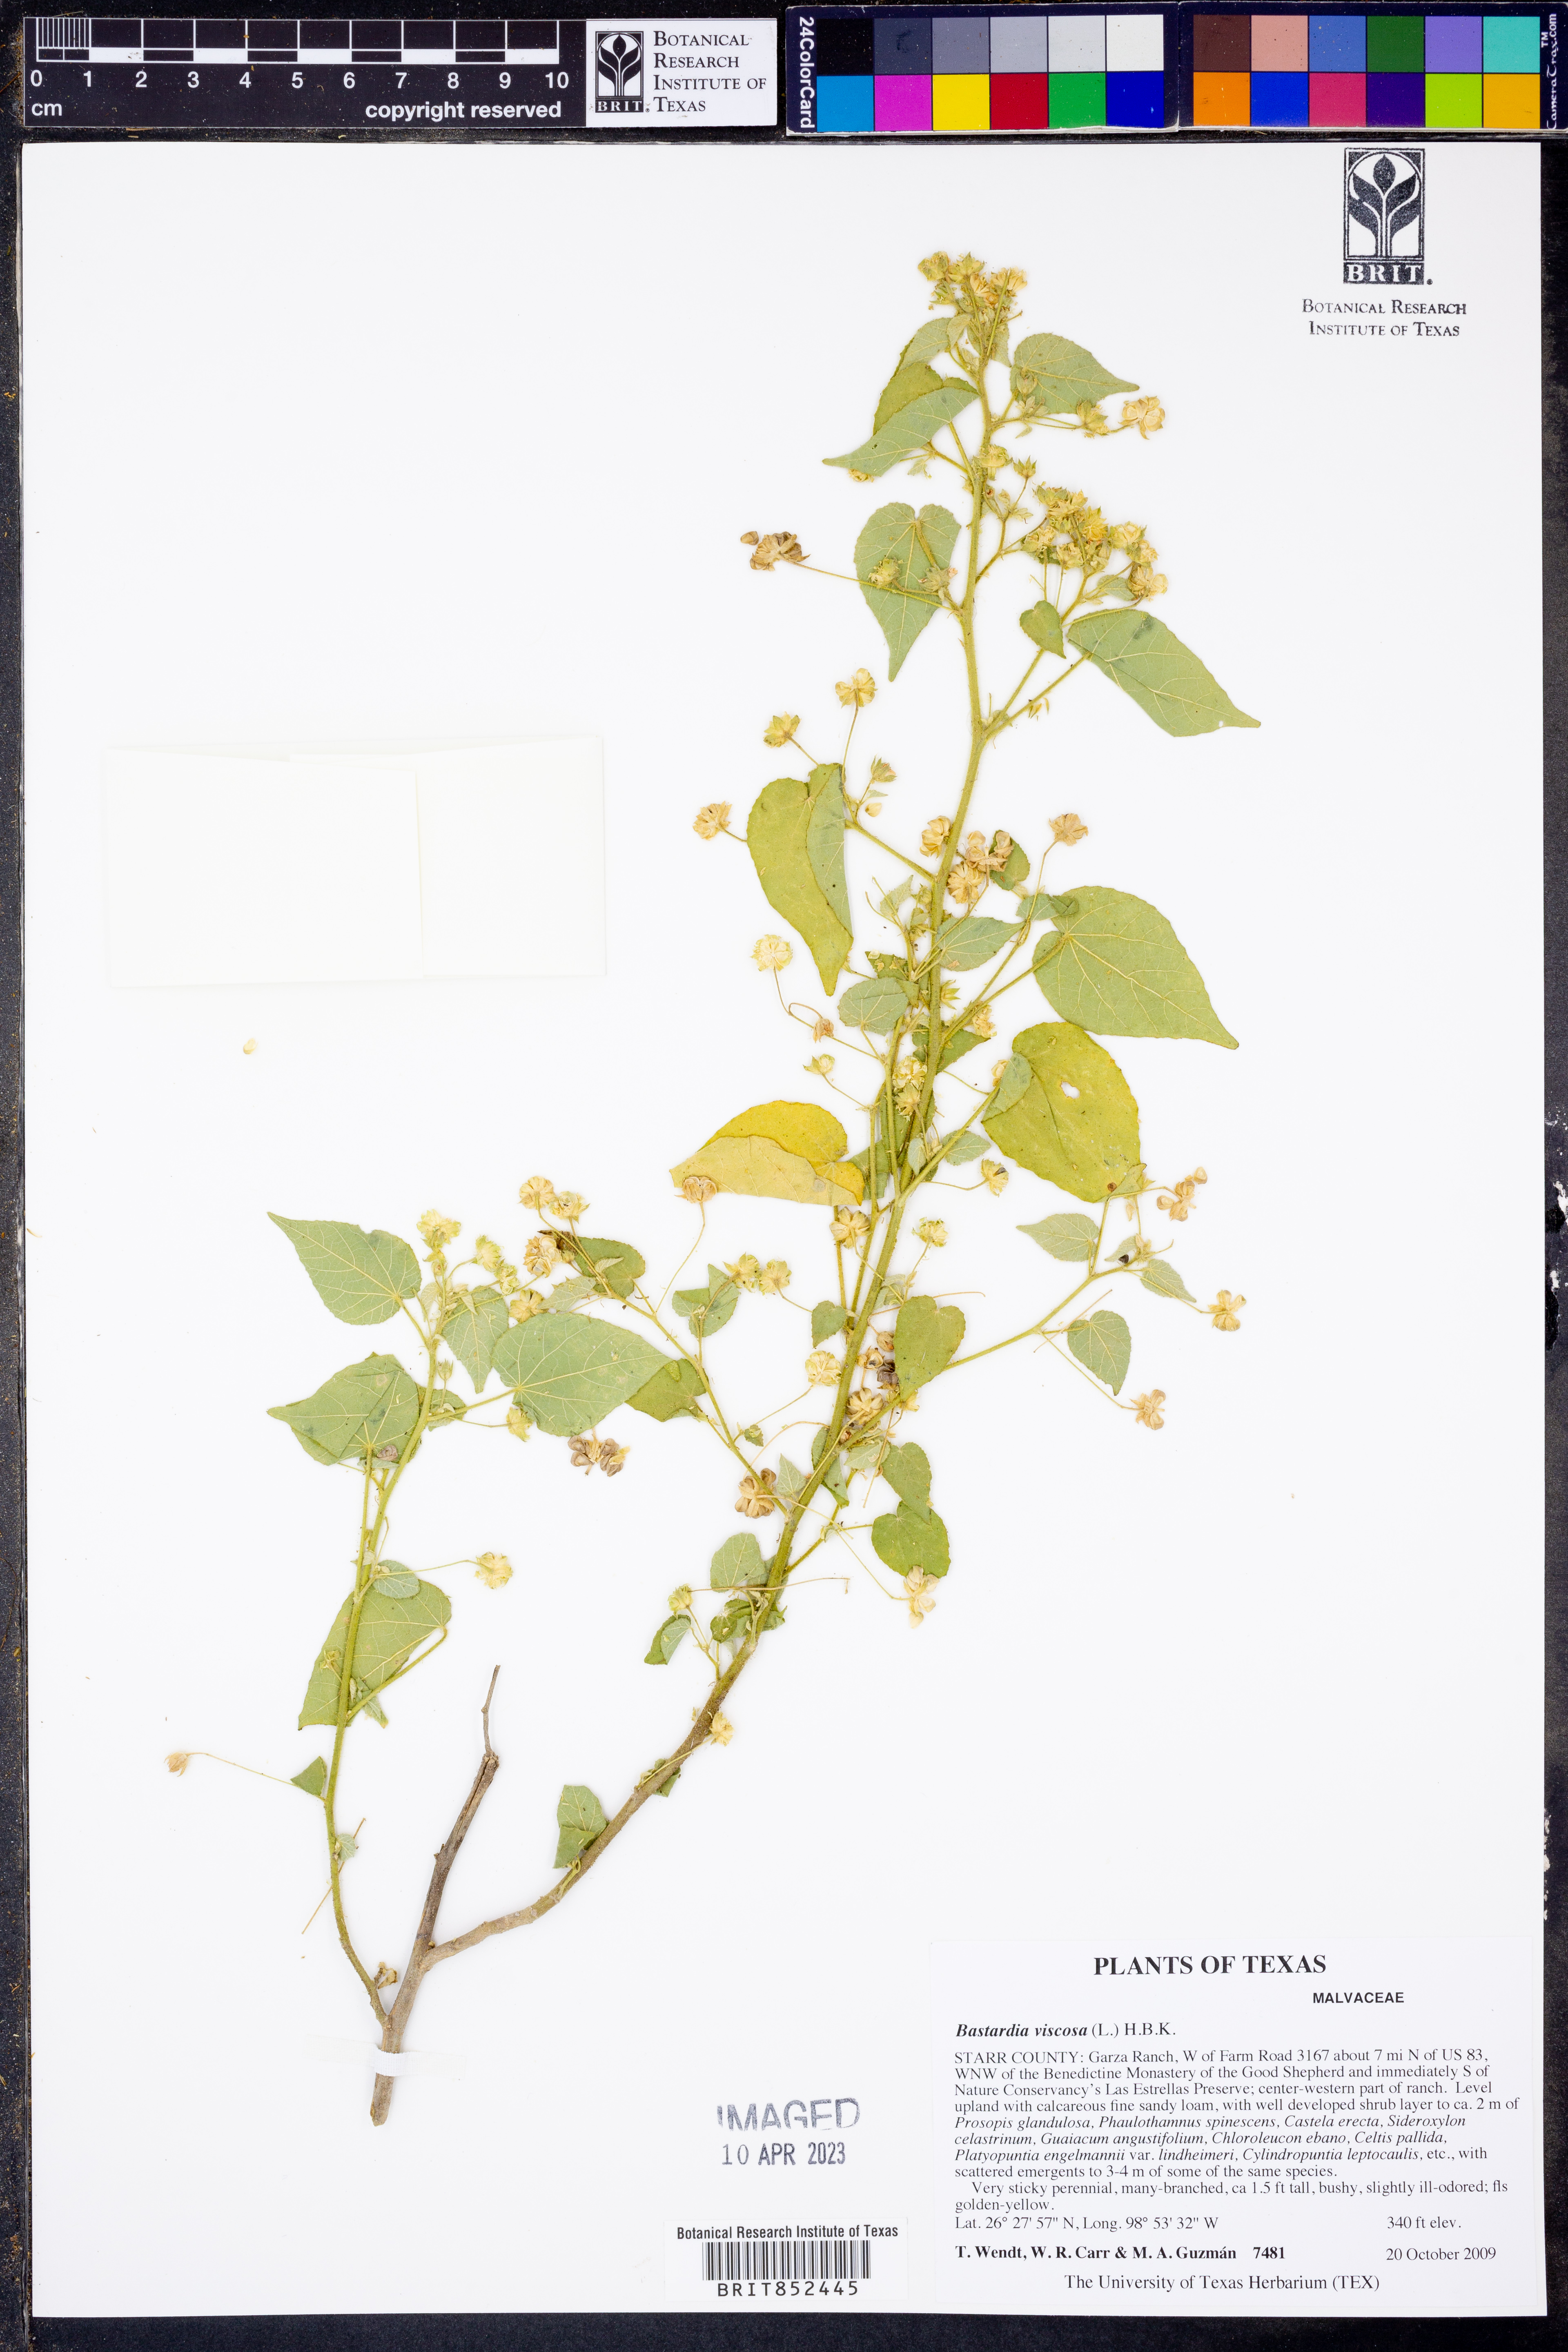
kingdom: Plantae
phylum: Tracheophyta
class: Magnoliopsida
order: Malvales
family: Malvaceae
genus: Abutilon
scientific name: Abutilon viscosum
